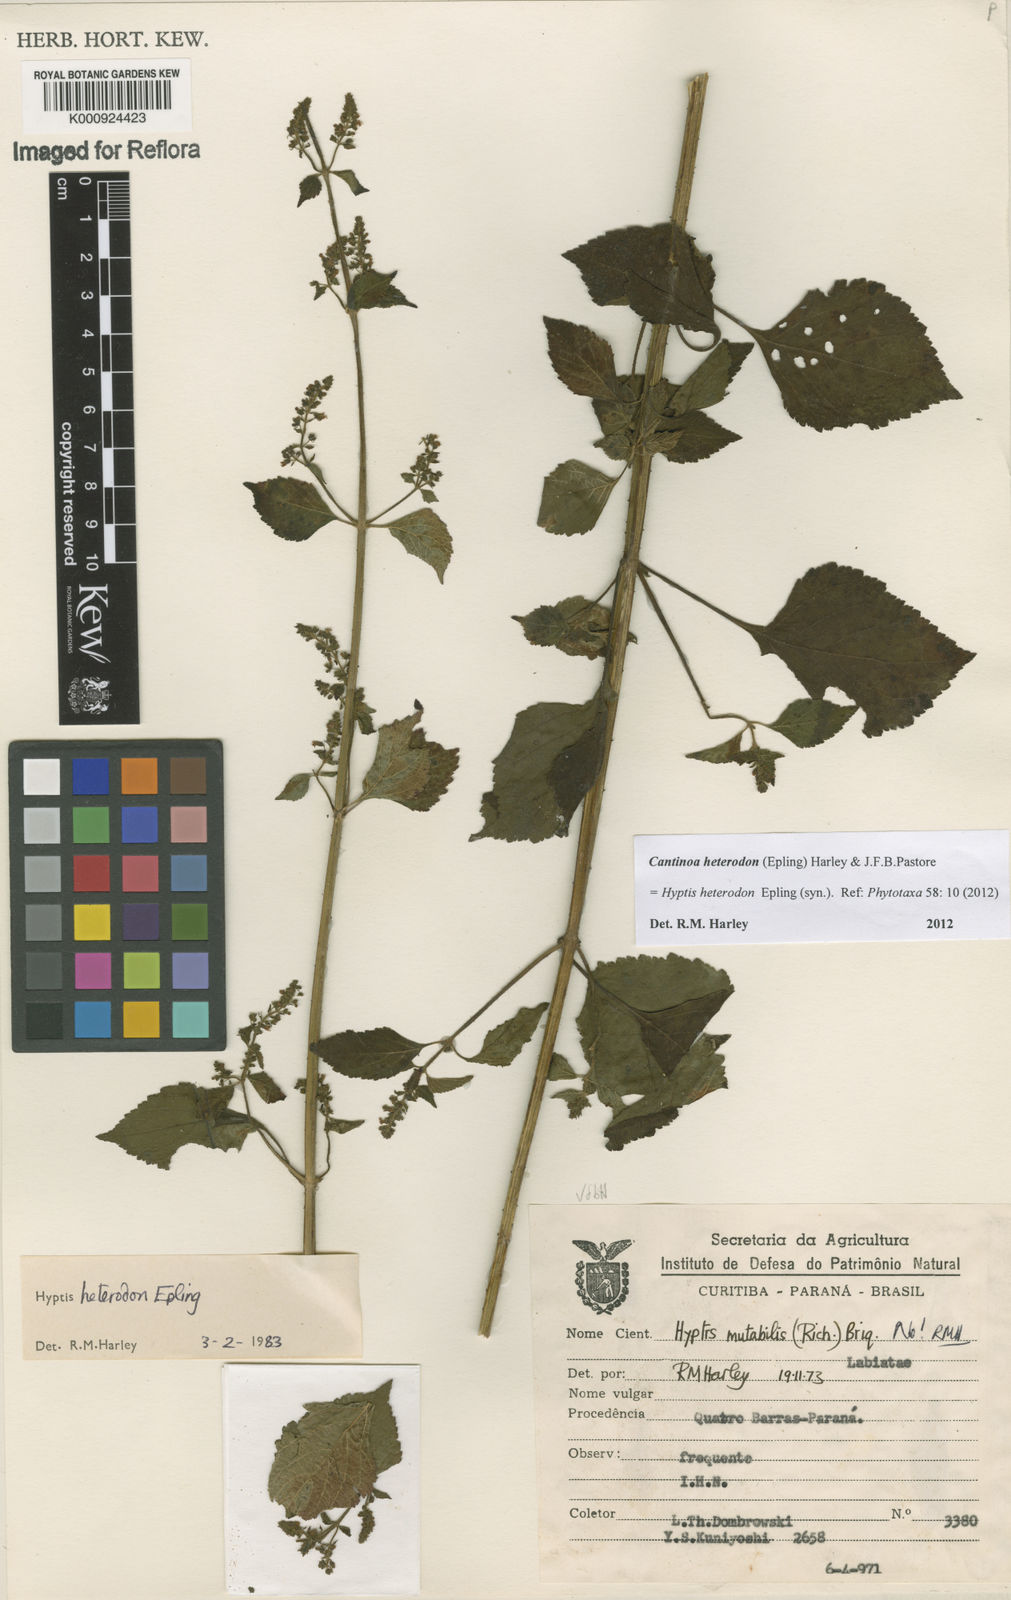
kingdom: Plantae
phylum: Tracheophyta
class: Magnoliopsida
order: Lamiales
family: Lamiaceae
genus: Cantinoa
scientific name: Cantinoa heterodon
